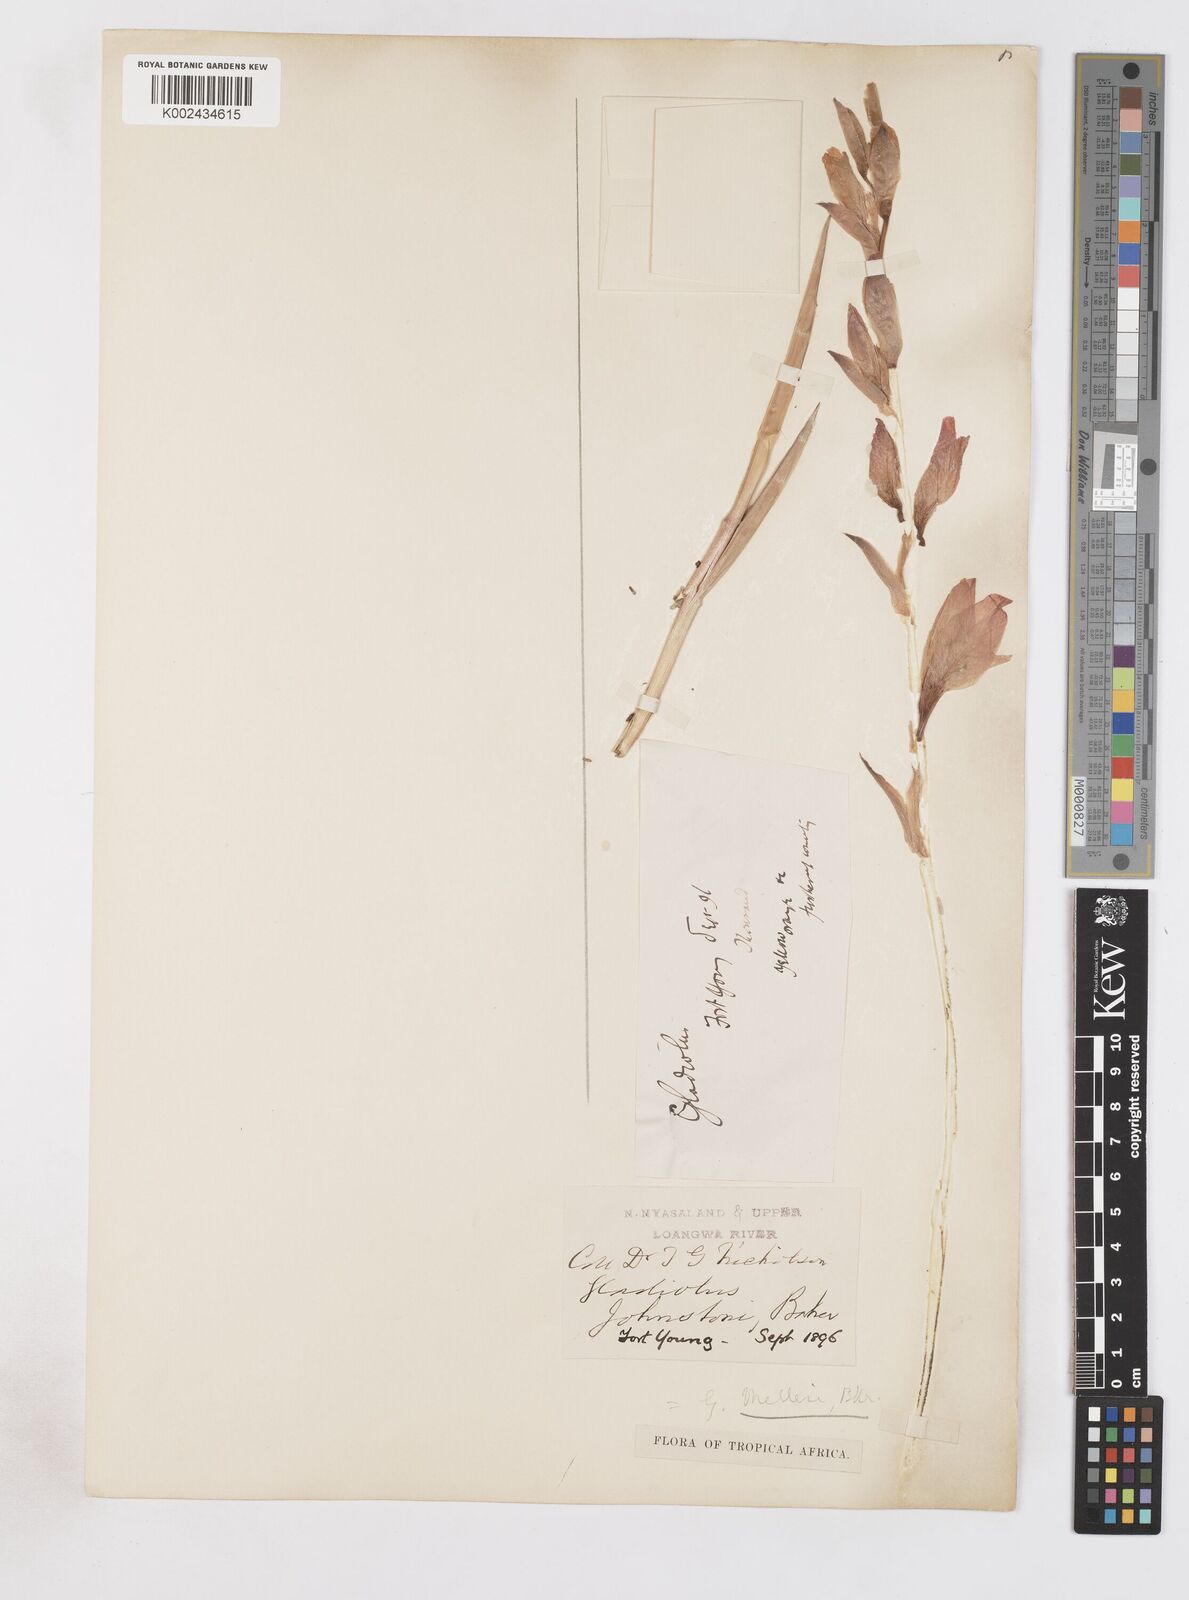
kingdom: Plantae
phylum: Tracheophyta
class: Liliopsida
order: Asparagales
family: Iridaceae
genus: Gladiolus
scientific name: Gladiolus melleri
